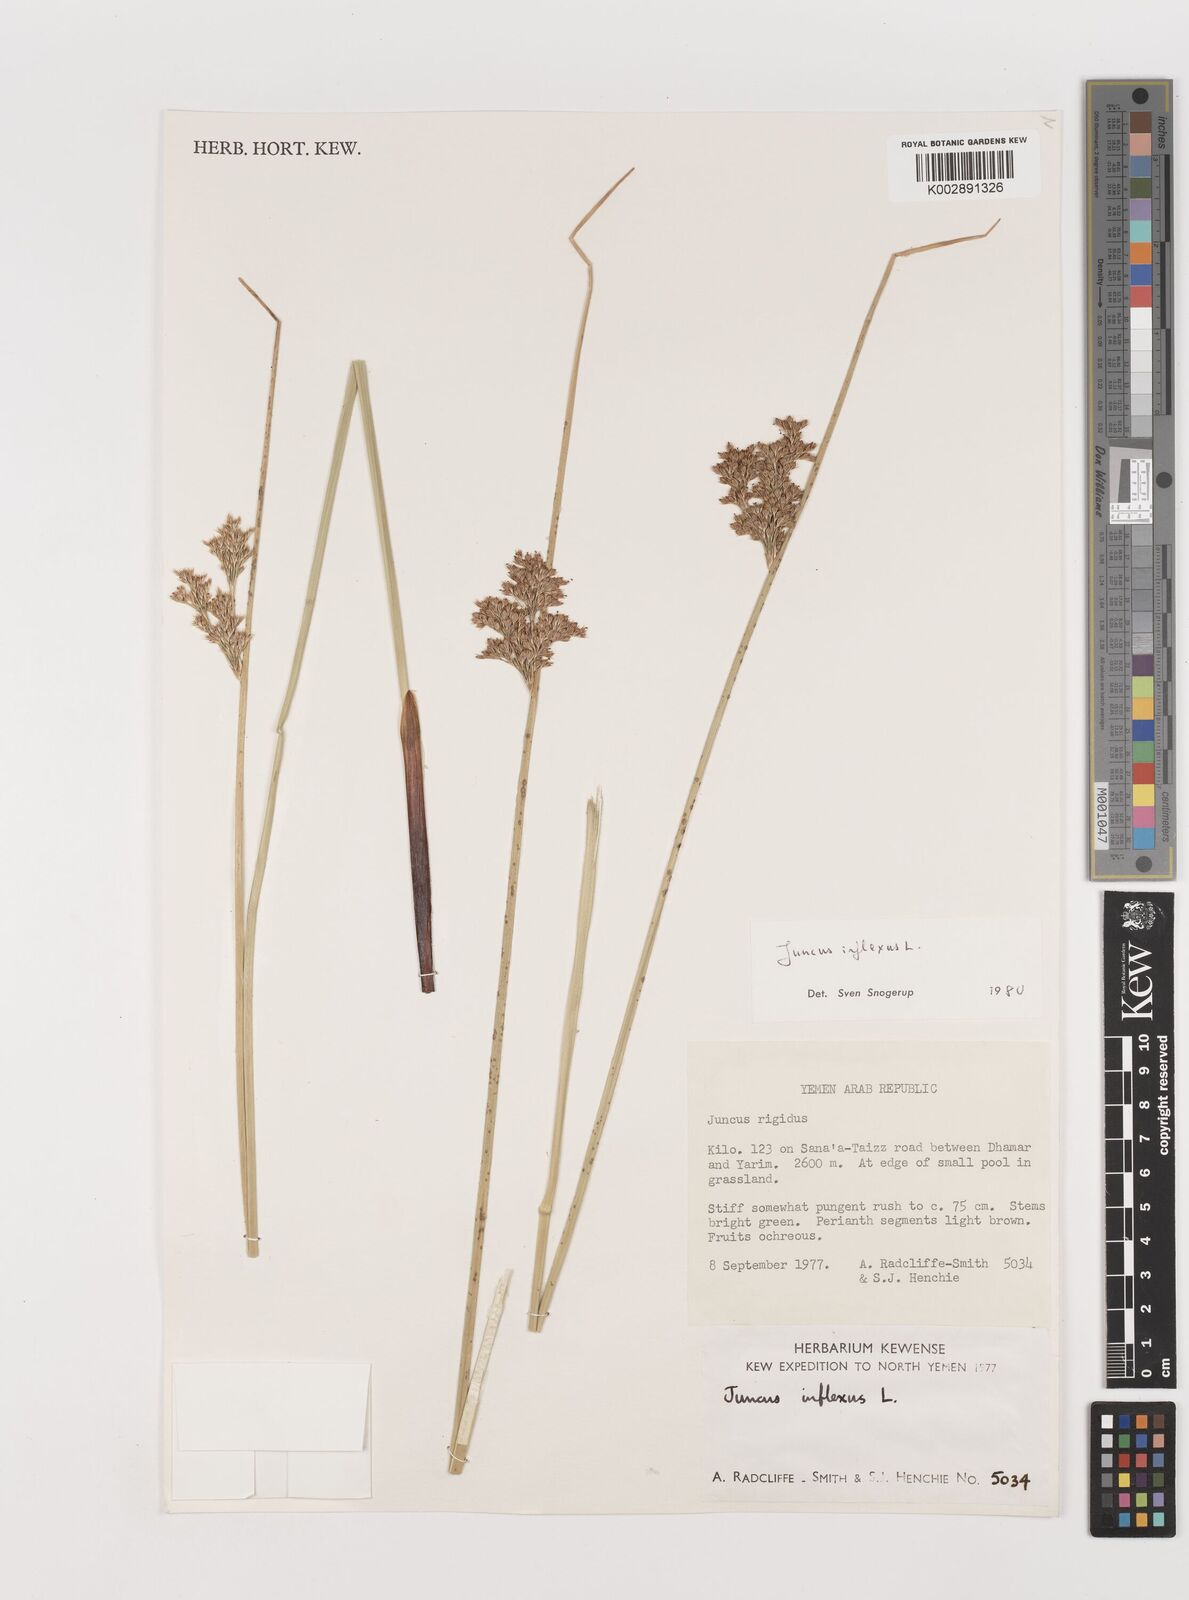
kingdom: Plantae
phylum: Tracheophyta
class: Liliopsida
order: Poales
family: Juncaceae
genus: Juncus
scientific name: Juncus inflexus
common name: Hard rush
